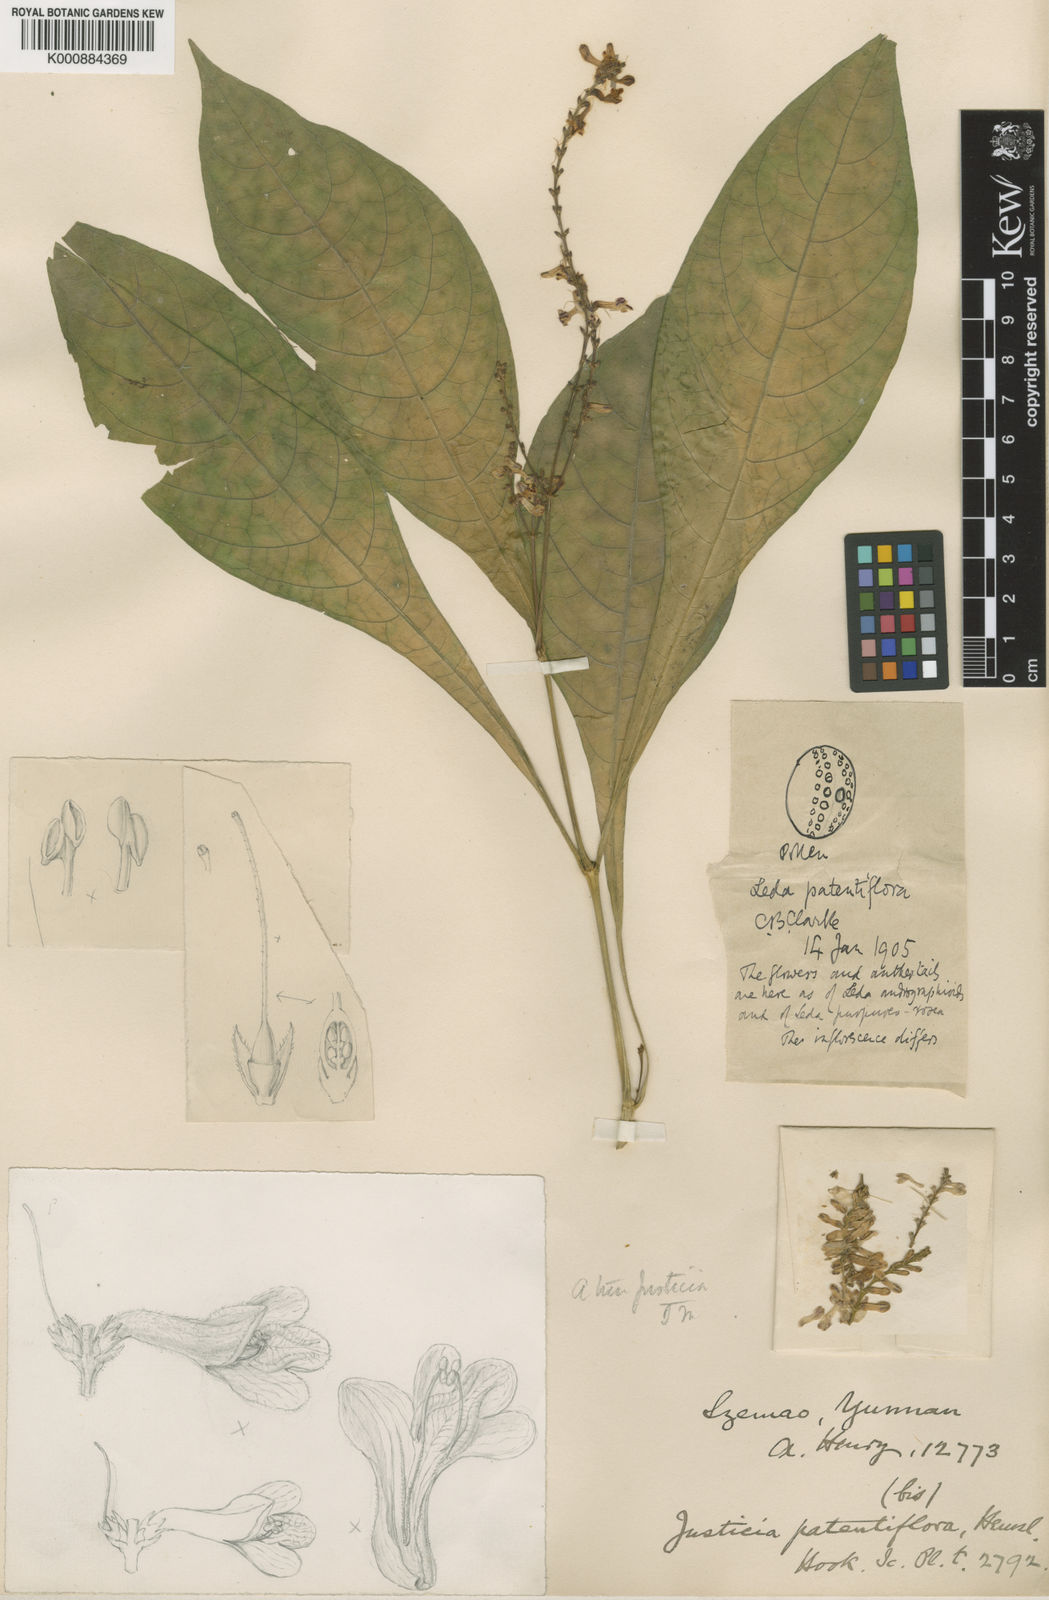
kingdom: Plantae
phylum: Tracheophyta
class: Magnoliopsida
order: Lamiales
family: Acanthaceae
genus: Isoglossa
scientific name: Isoglossa
